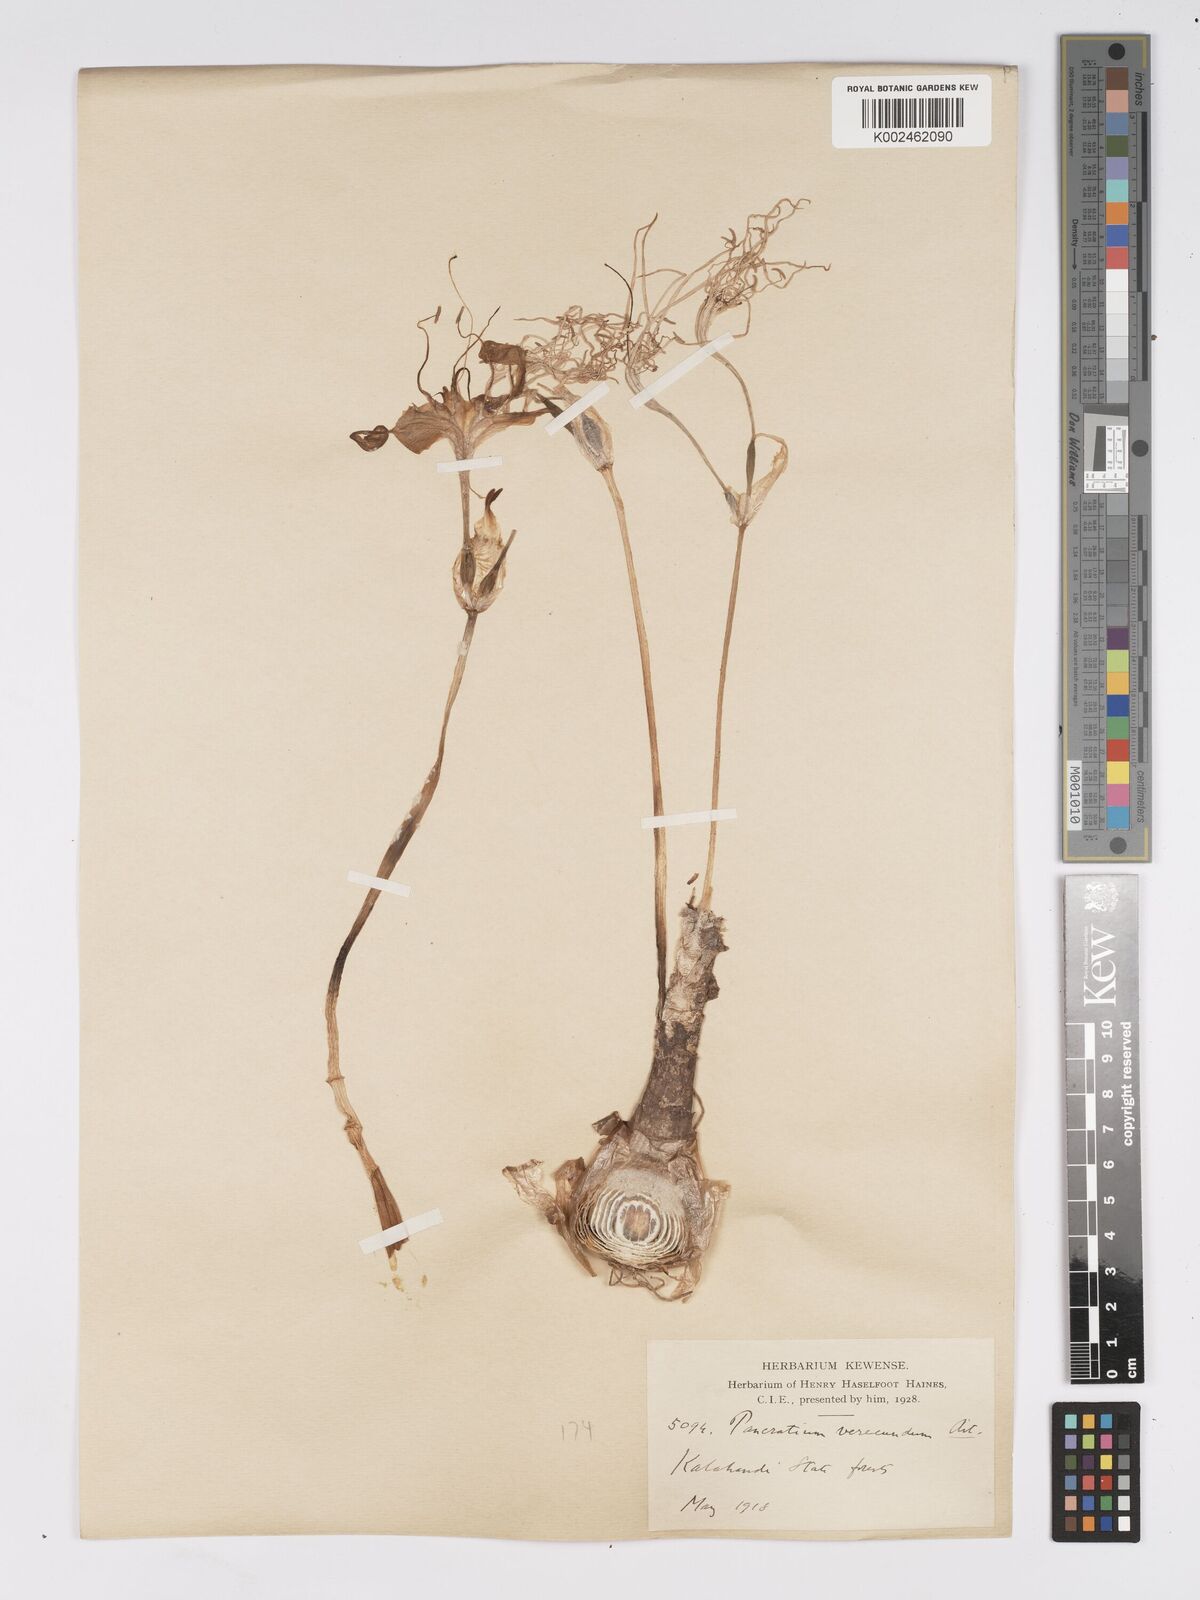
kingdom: Plantae
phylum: Tracheophyta
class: Liliopsida
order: Asparagales
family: Amaryllidaceae
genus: Pancratium
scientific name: Pancratium triflorum
